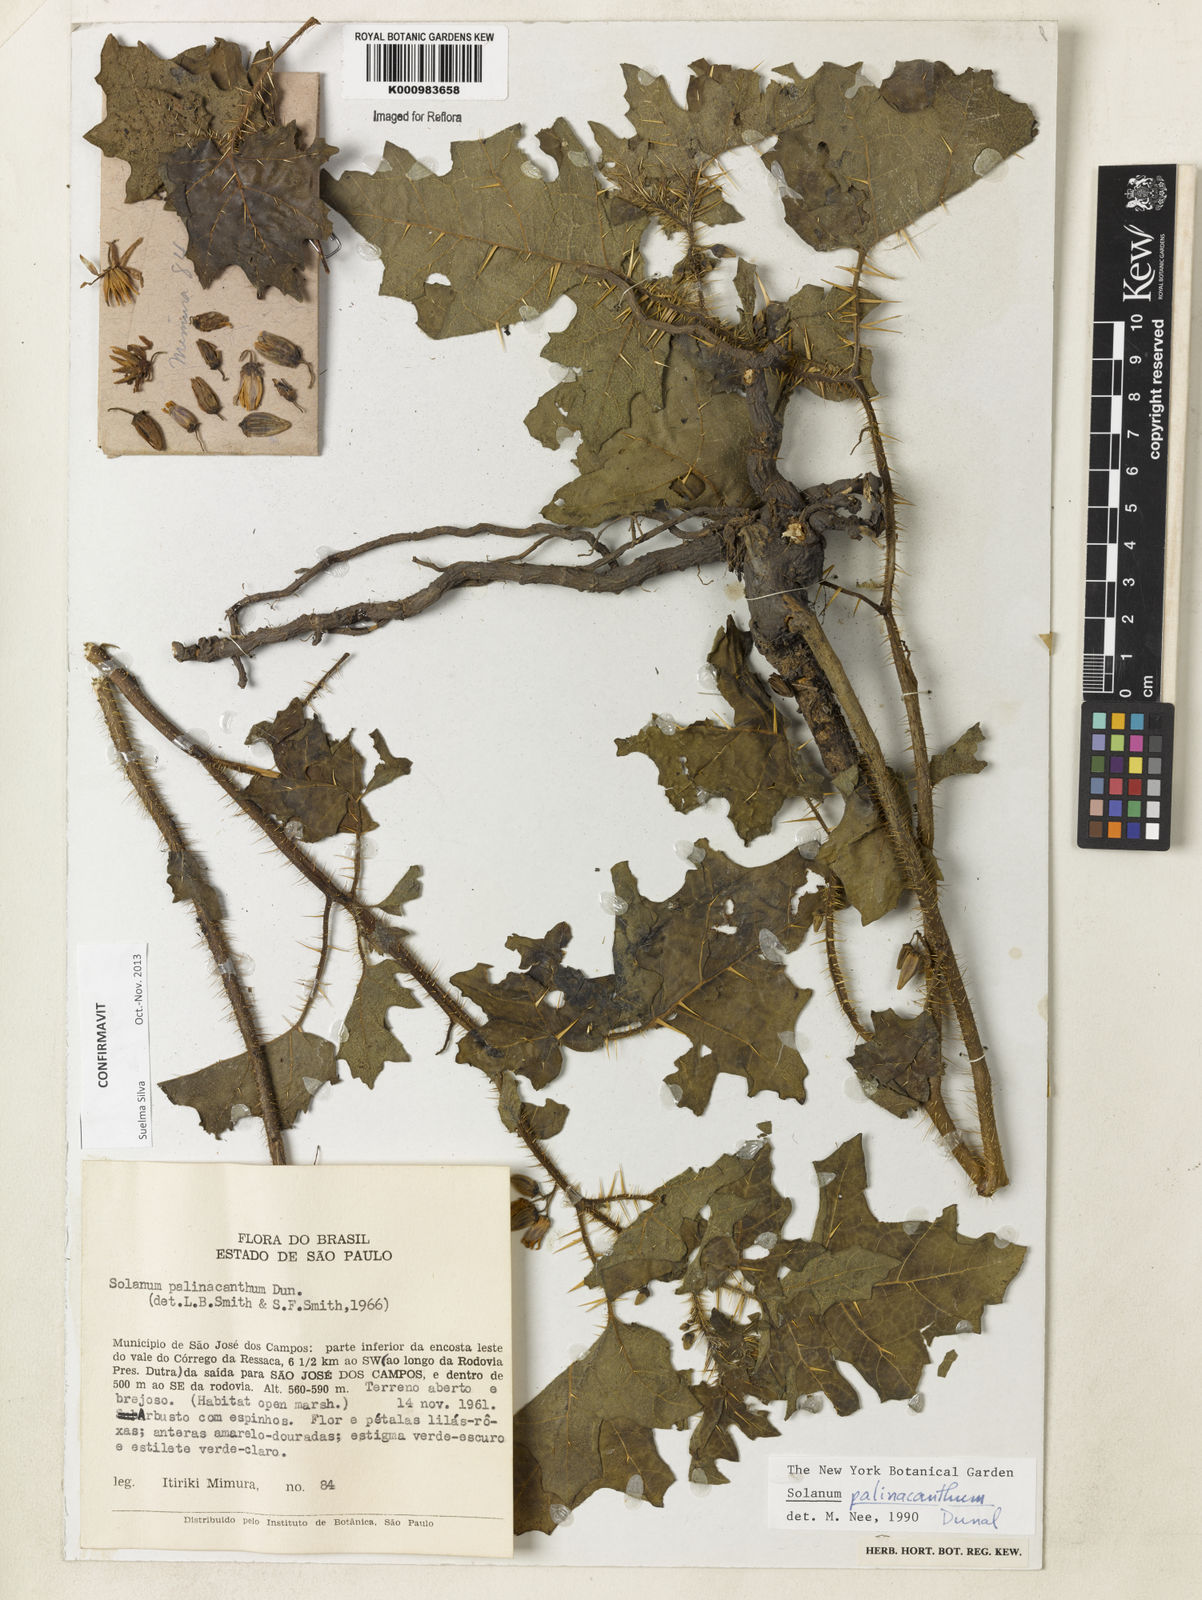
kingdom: Plantae
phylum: Tracheophyta
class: Magnoliopsida
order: Solanales
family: Solanaceae
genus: Solanum
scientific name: Solanum palinacanthum
